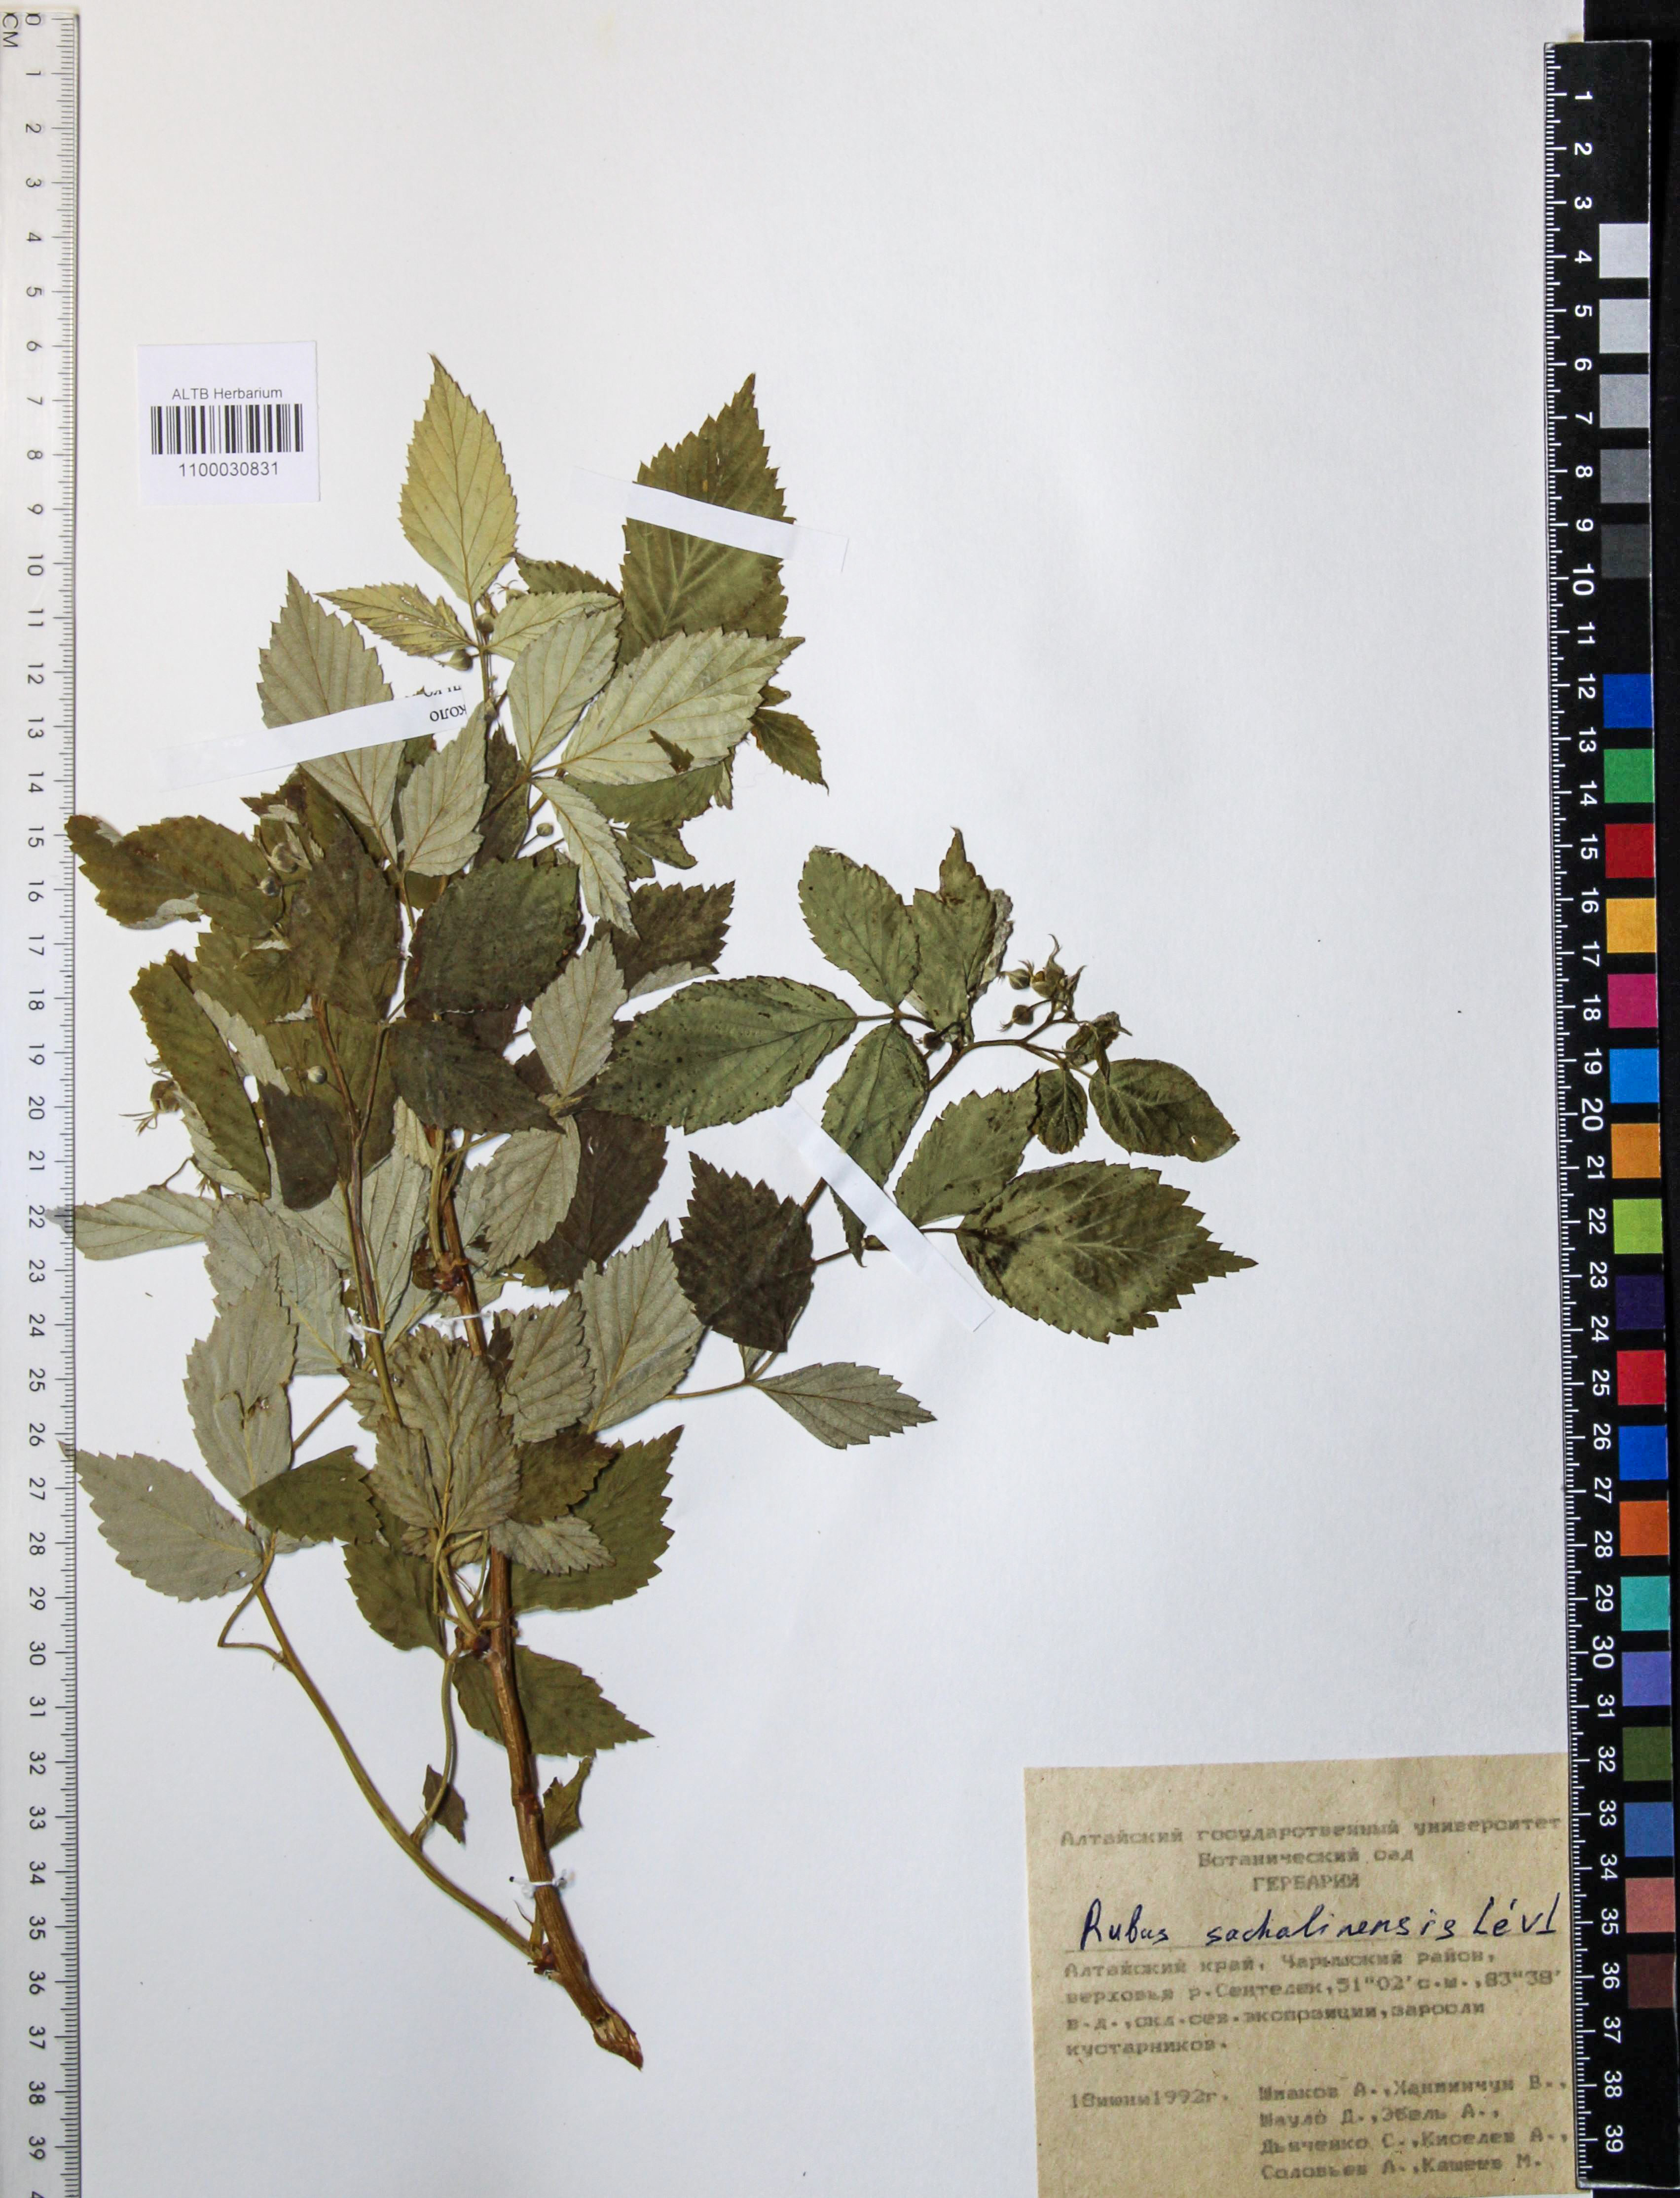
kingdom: Plantae
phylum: Tracheophyta
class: Magnoliopsida
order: Rosales
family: Rosaceae
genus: Rubus
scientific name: Rubus sachalinensis
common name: Red raspberry
